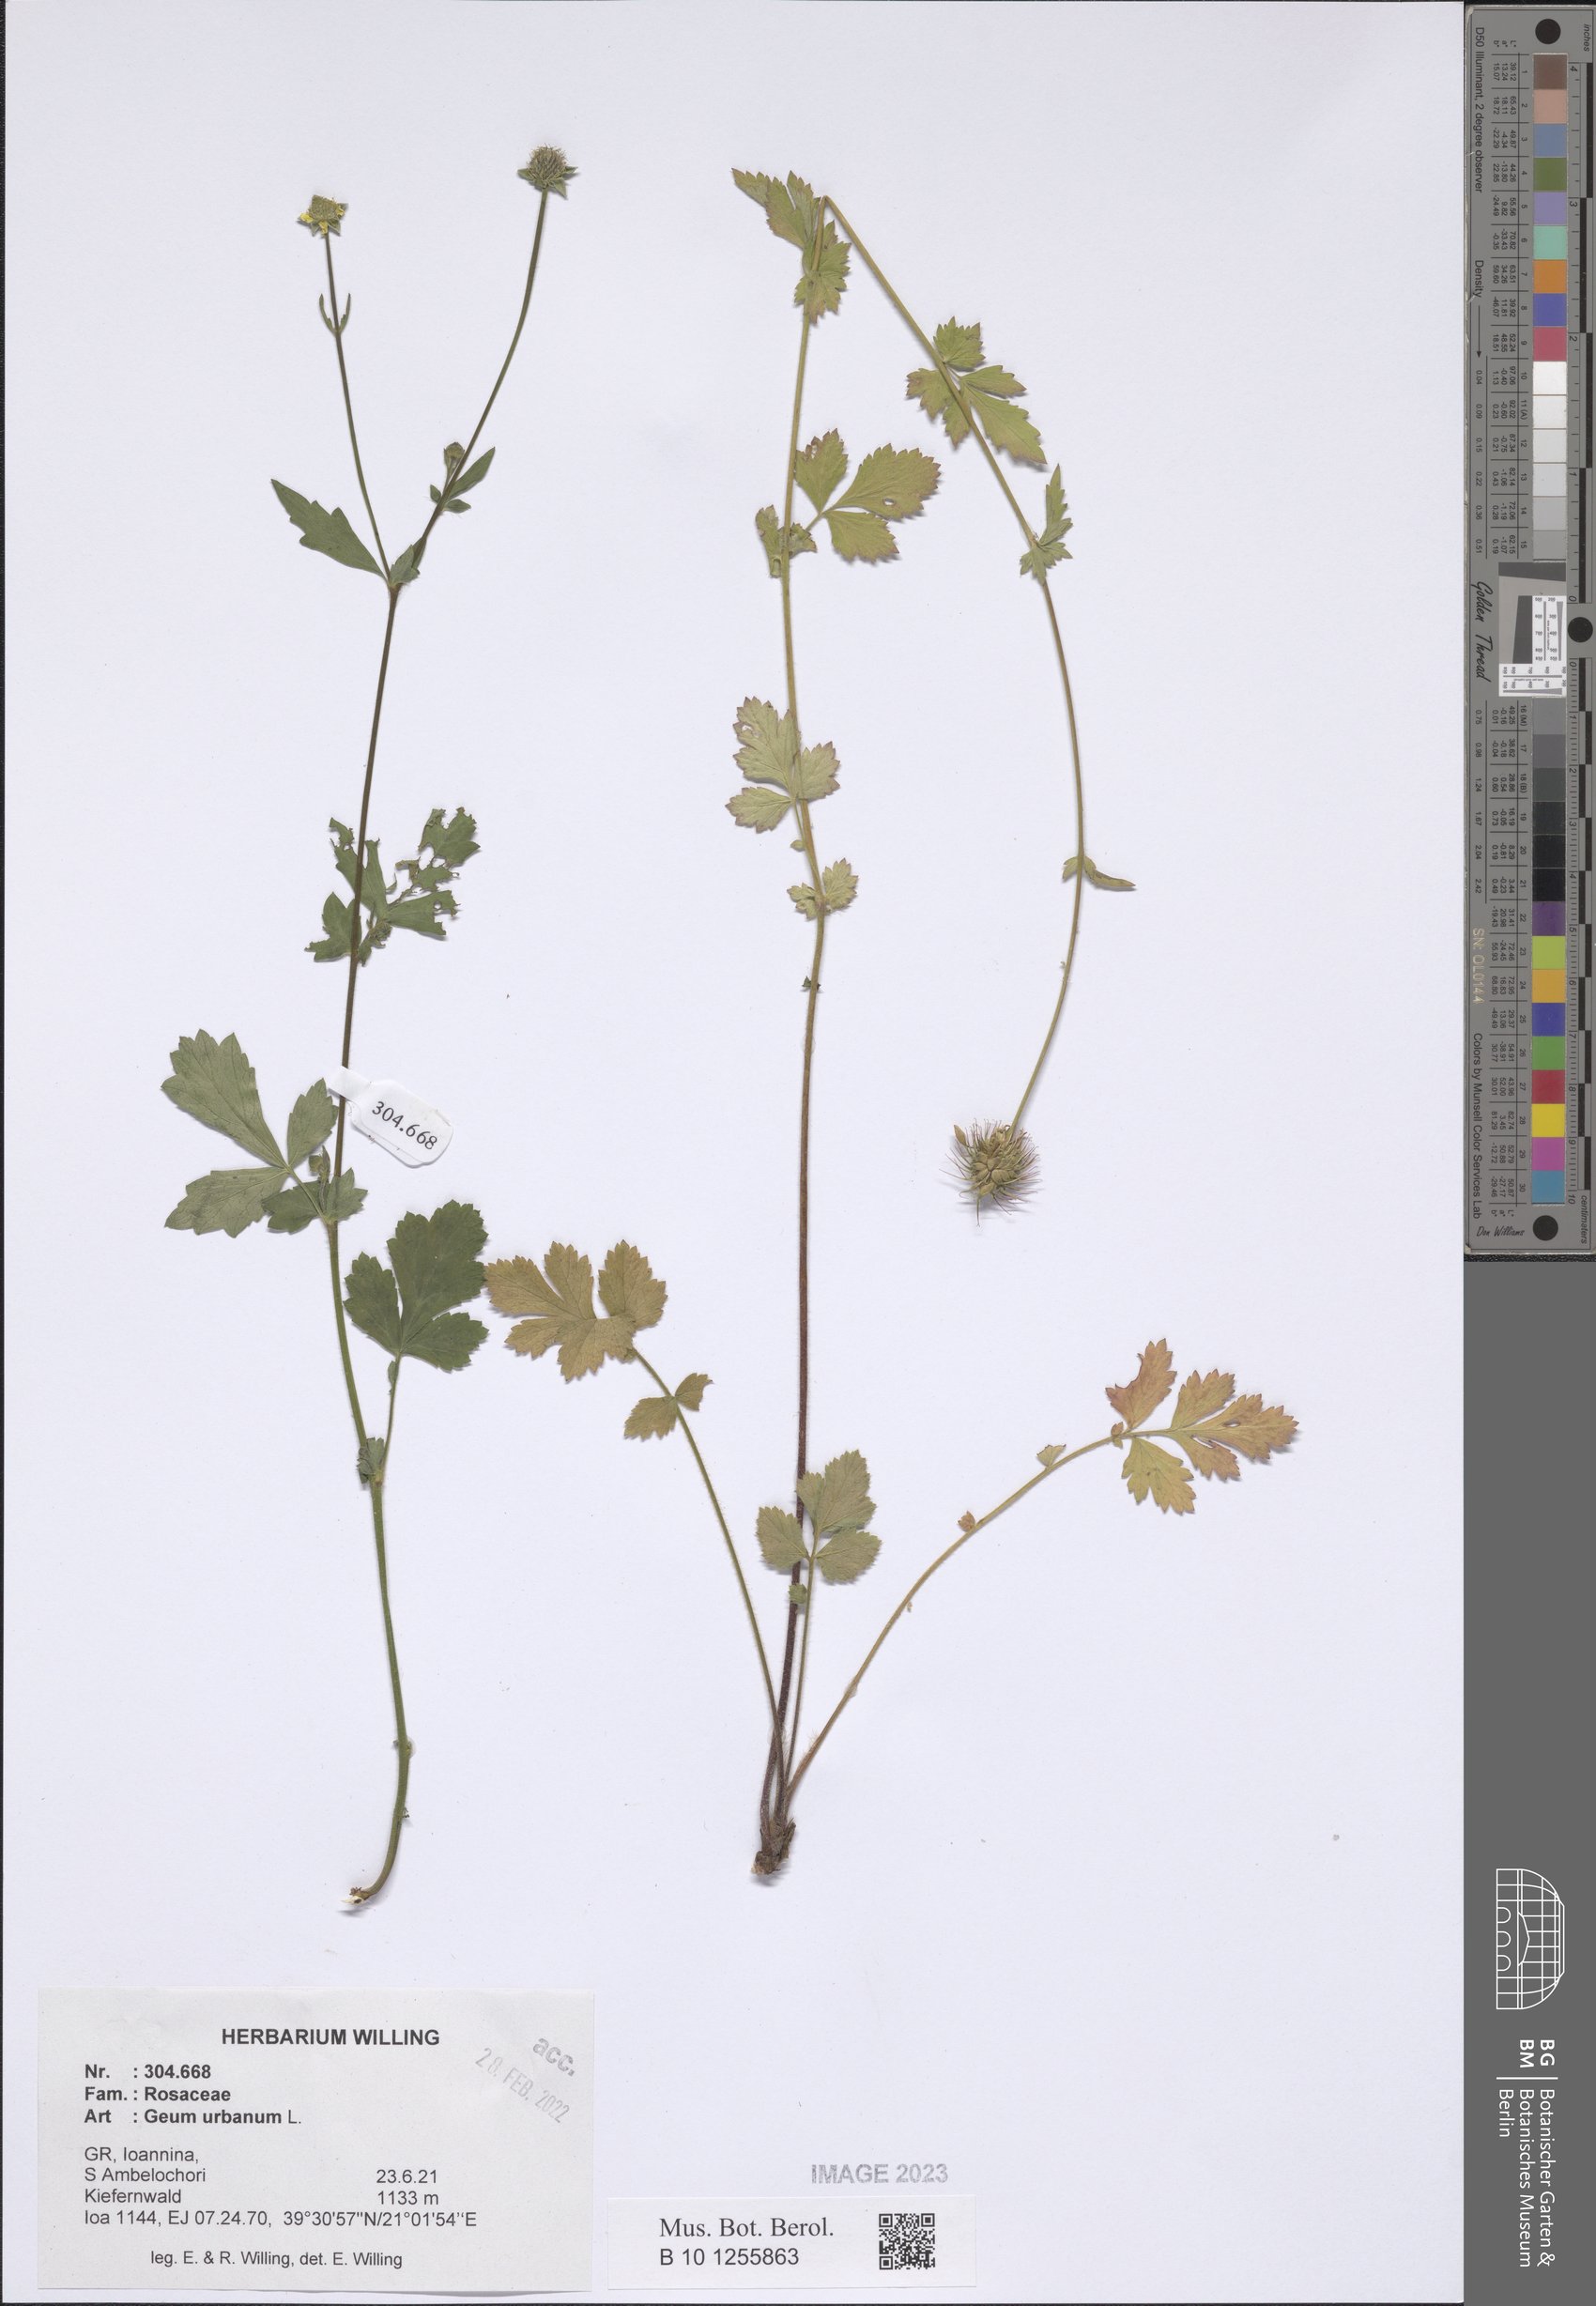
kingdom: Plantae
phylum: Tracheophyta
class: Magnoliopsida
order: Rosales
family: Rosaceae
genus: Geum
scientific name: Geum urbanum
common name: Wood avens
